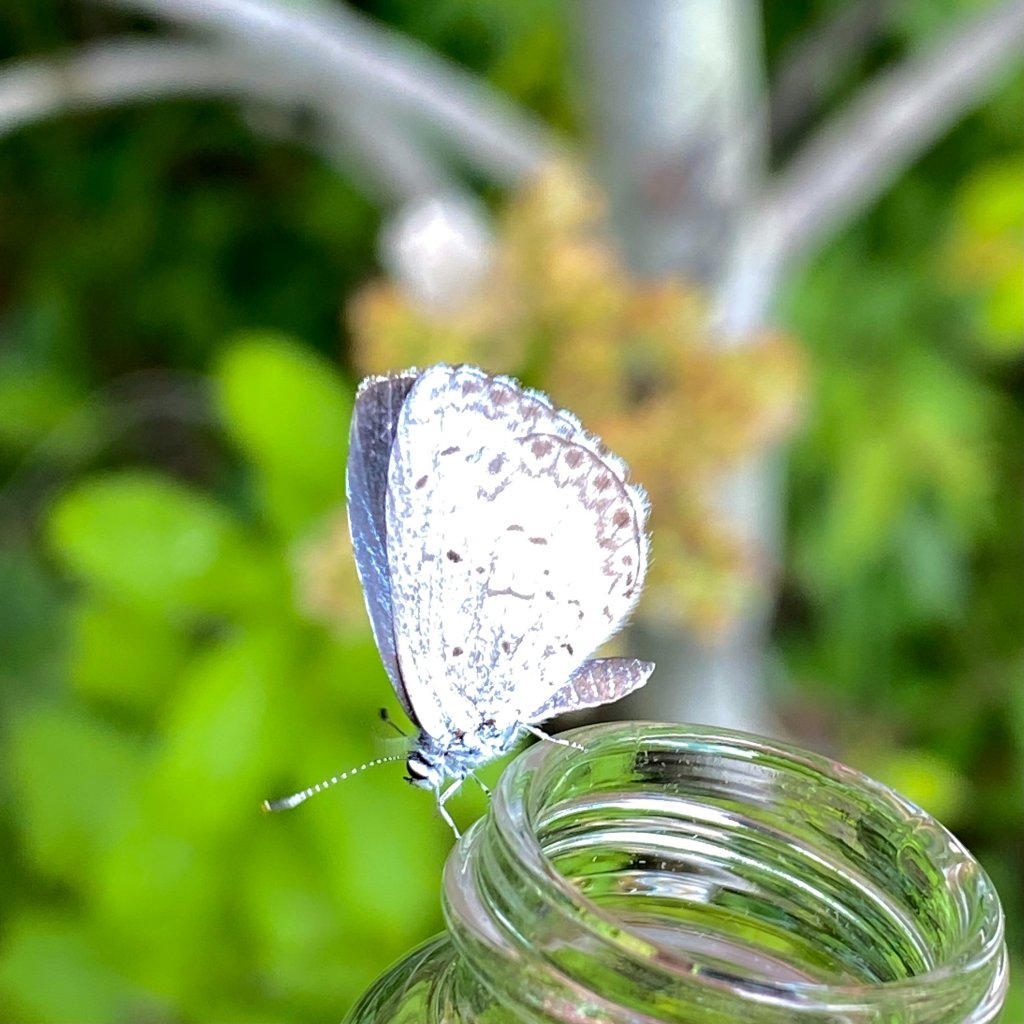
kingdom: Animalia
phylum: Arthropoda
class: Insecta
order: Lepidoptera
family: Lycaenidae
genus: Celastrina
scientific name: Celastrina lucia
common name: Northern Spring Azure
